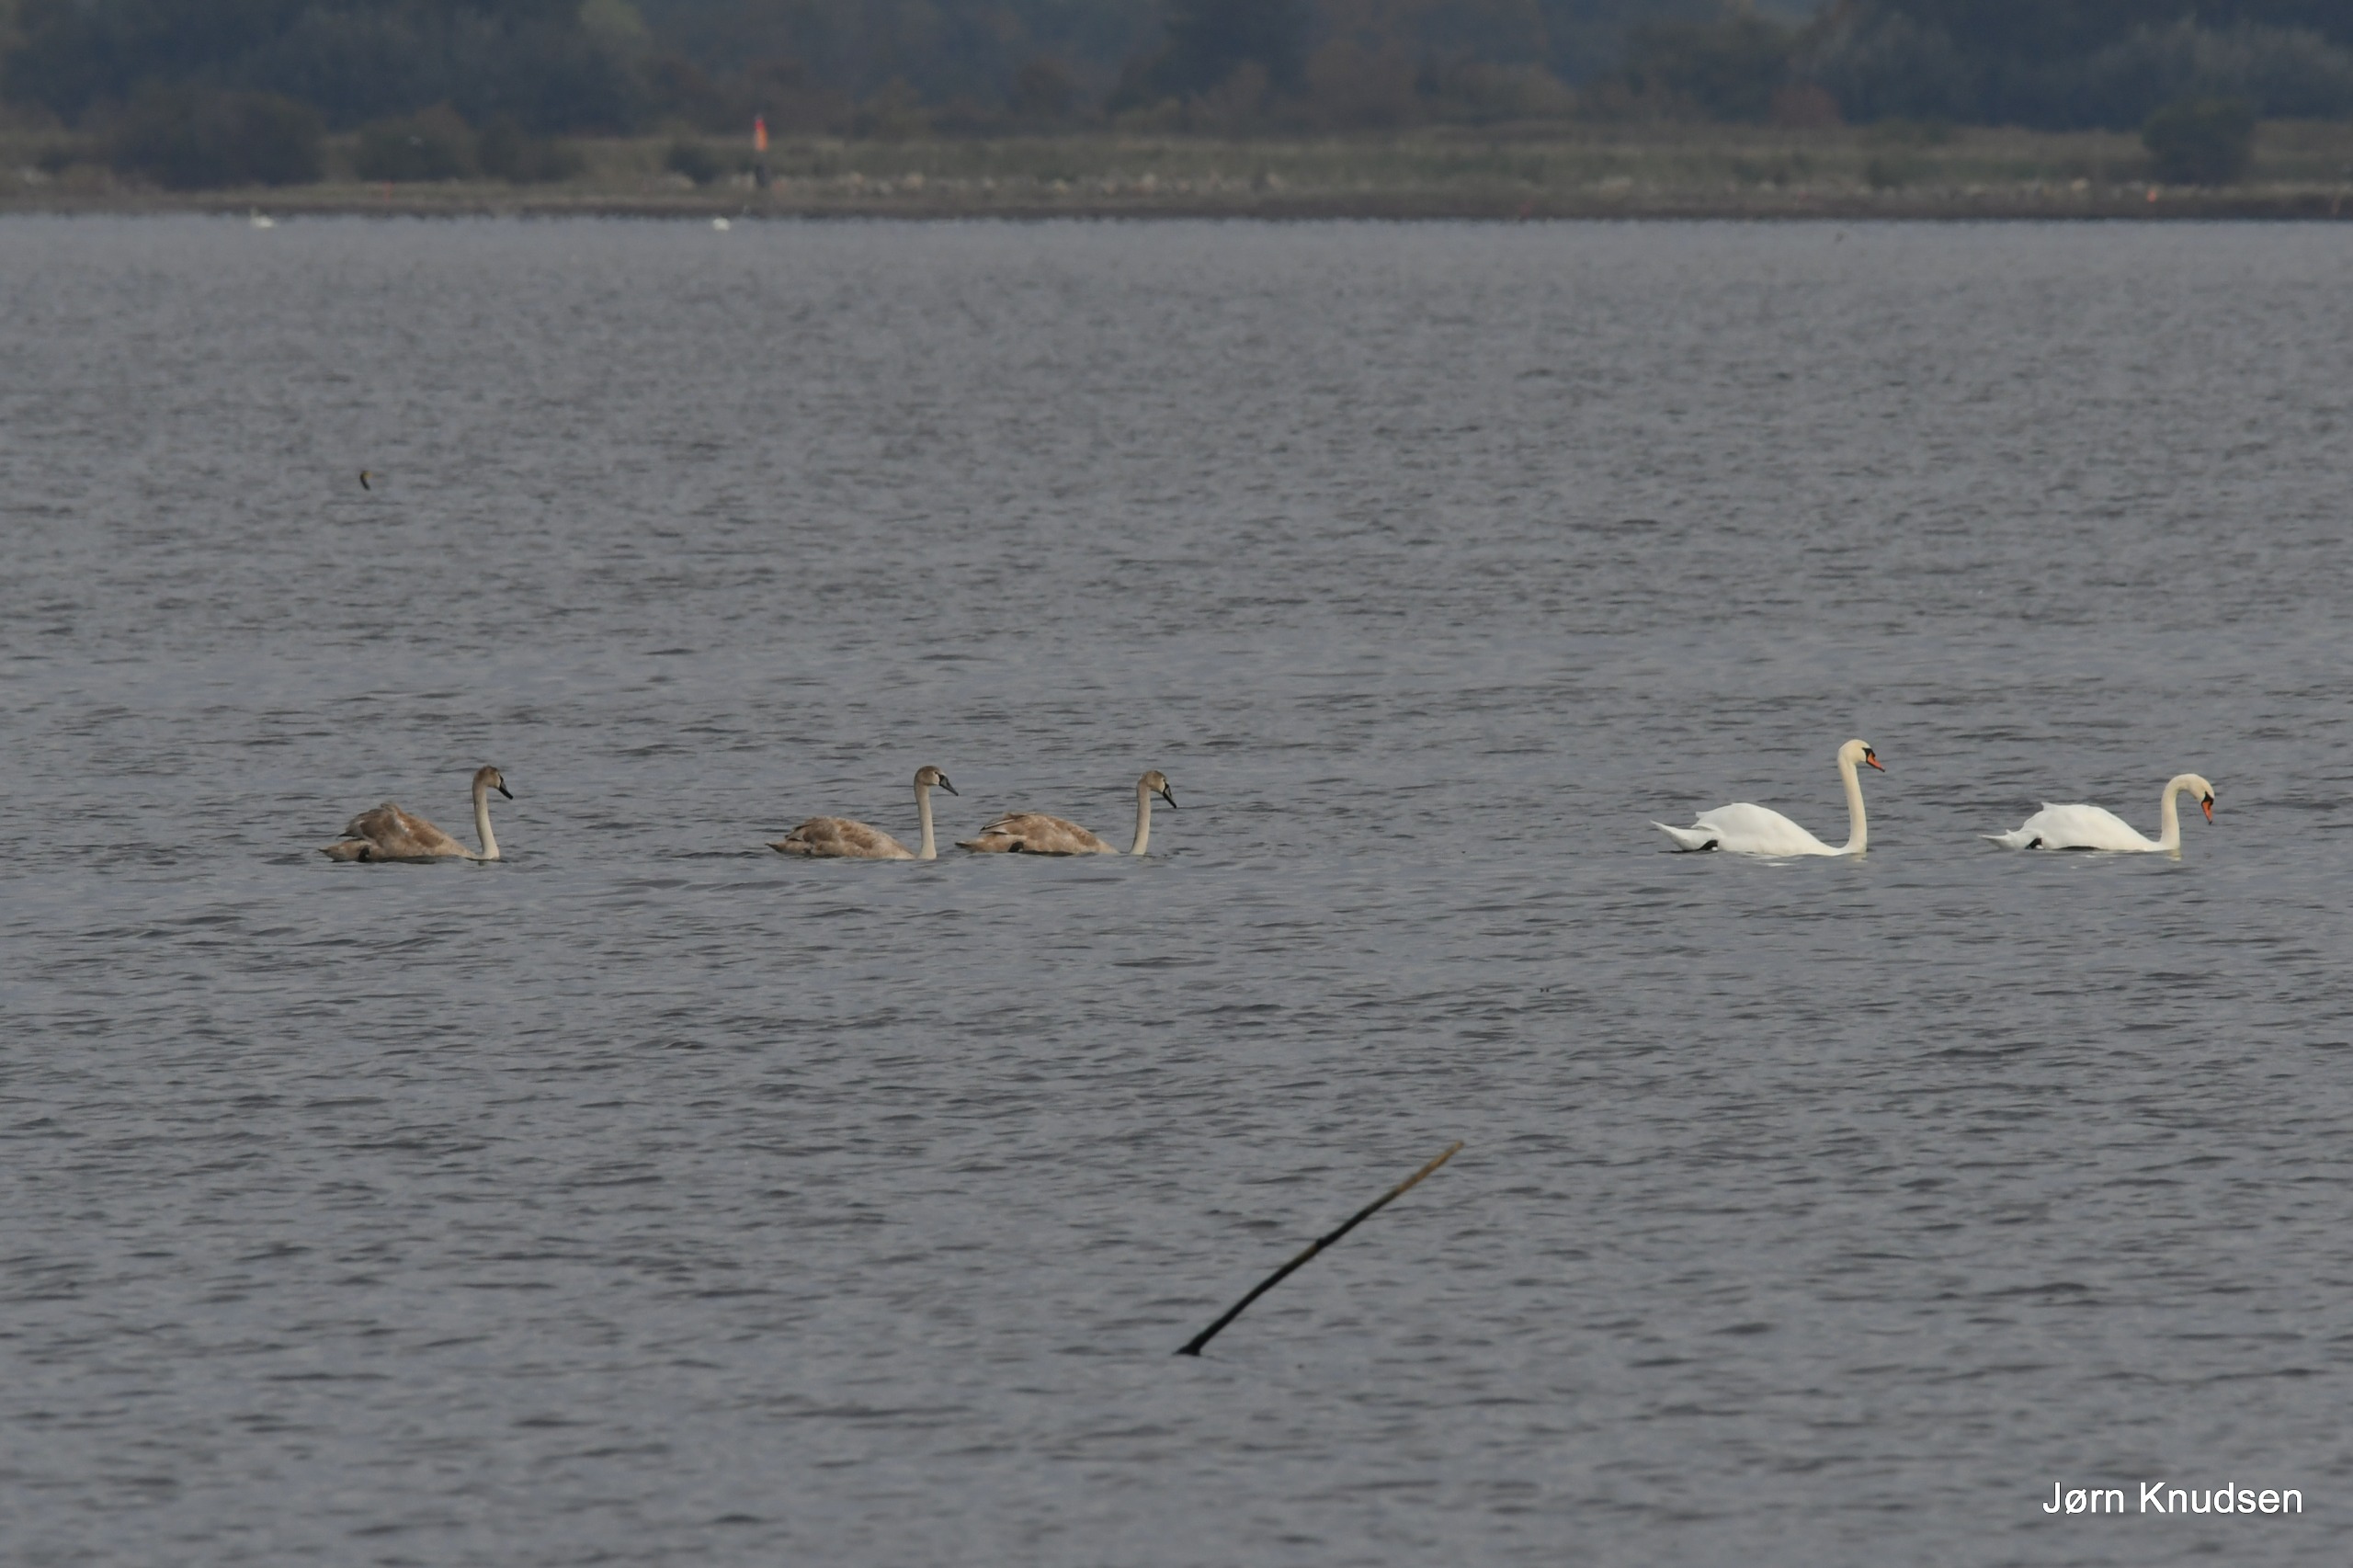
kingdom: Animalia
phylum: Chordata
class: Aves
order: Anseriformes
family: Anatidae
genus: Cygnus
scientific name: Cygnus olor
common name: Knopsvane
